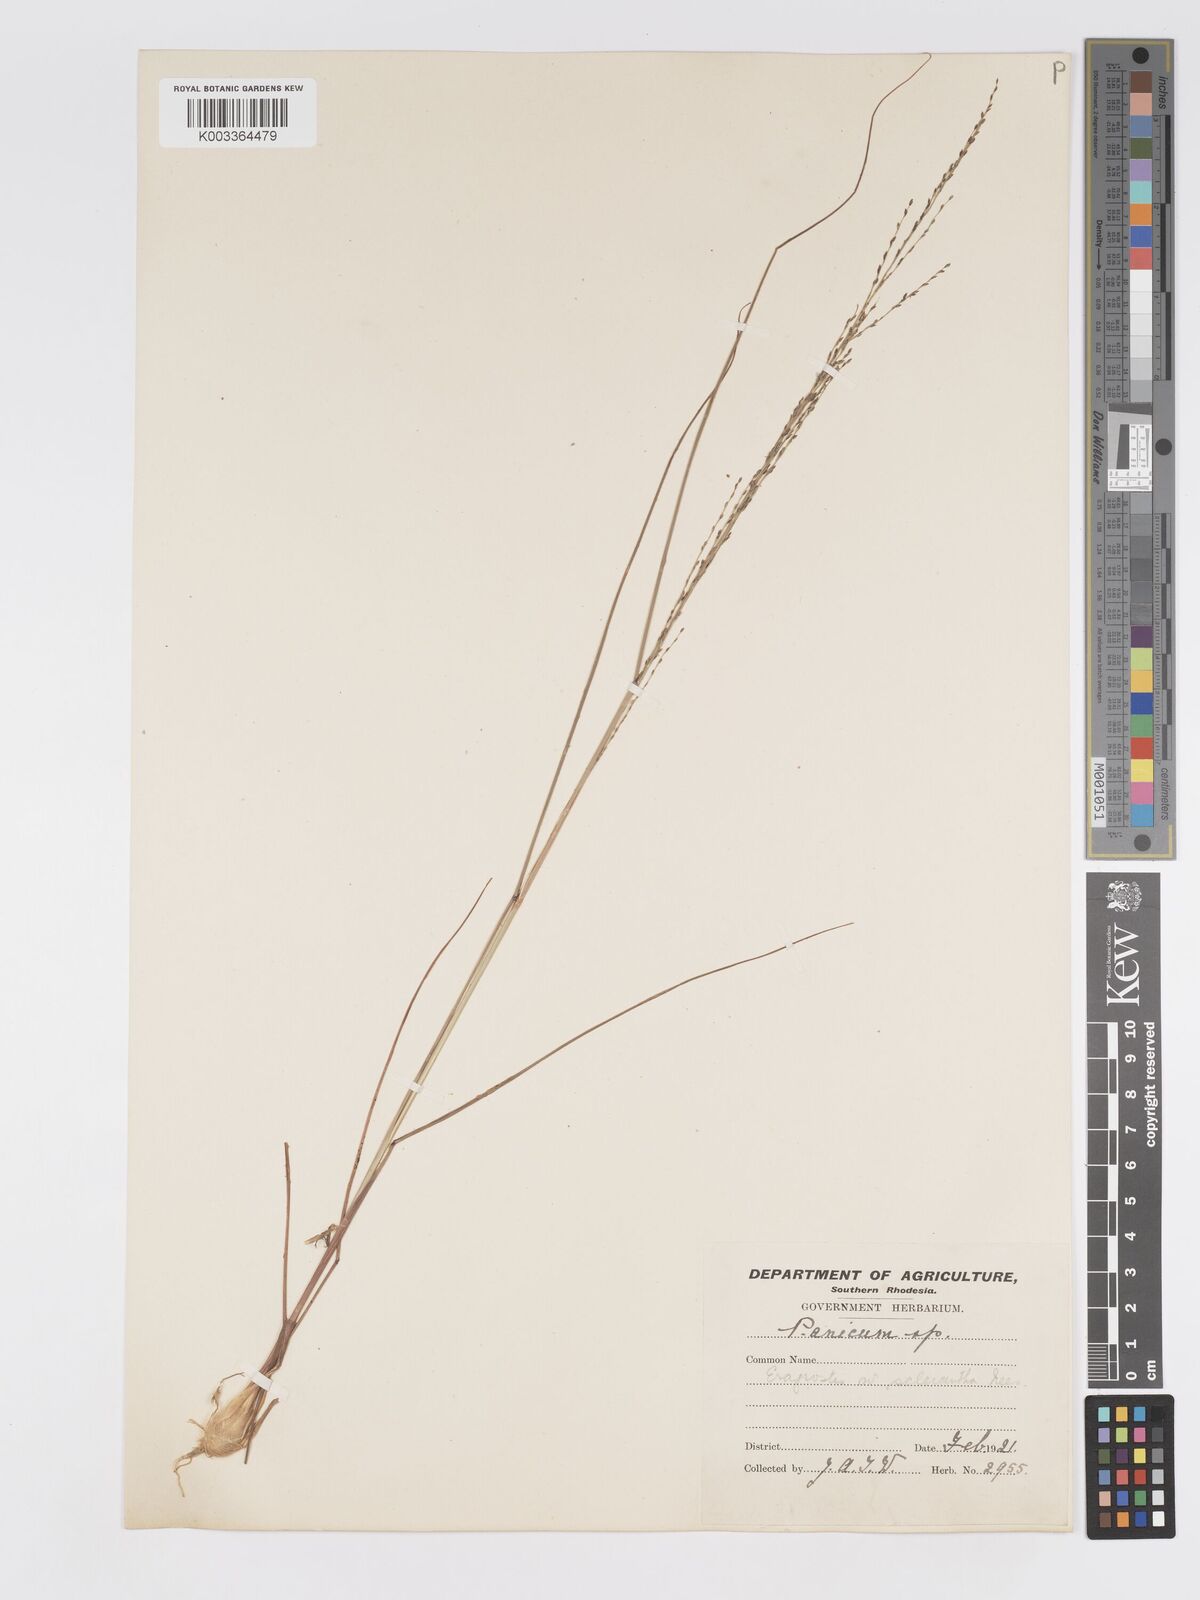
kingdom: Plantae
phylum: Tracheophyta
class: Liliopsida
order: Poales
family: Poaceae
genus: Eragrostis
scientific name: Eragrostis sclerantha
